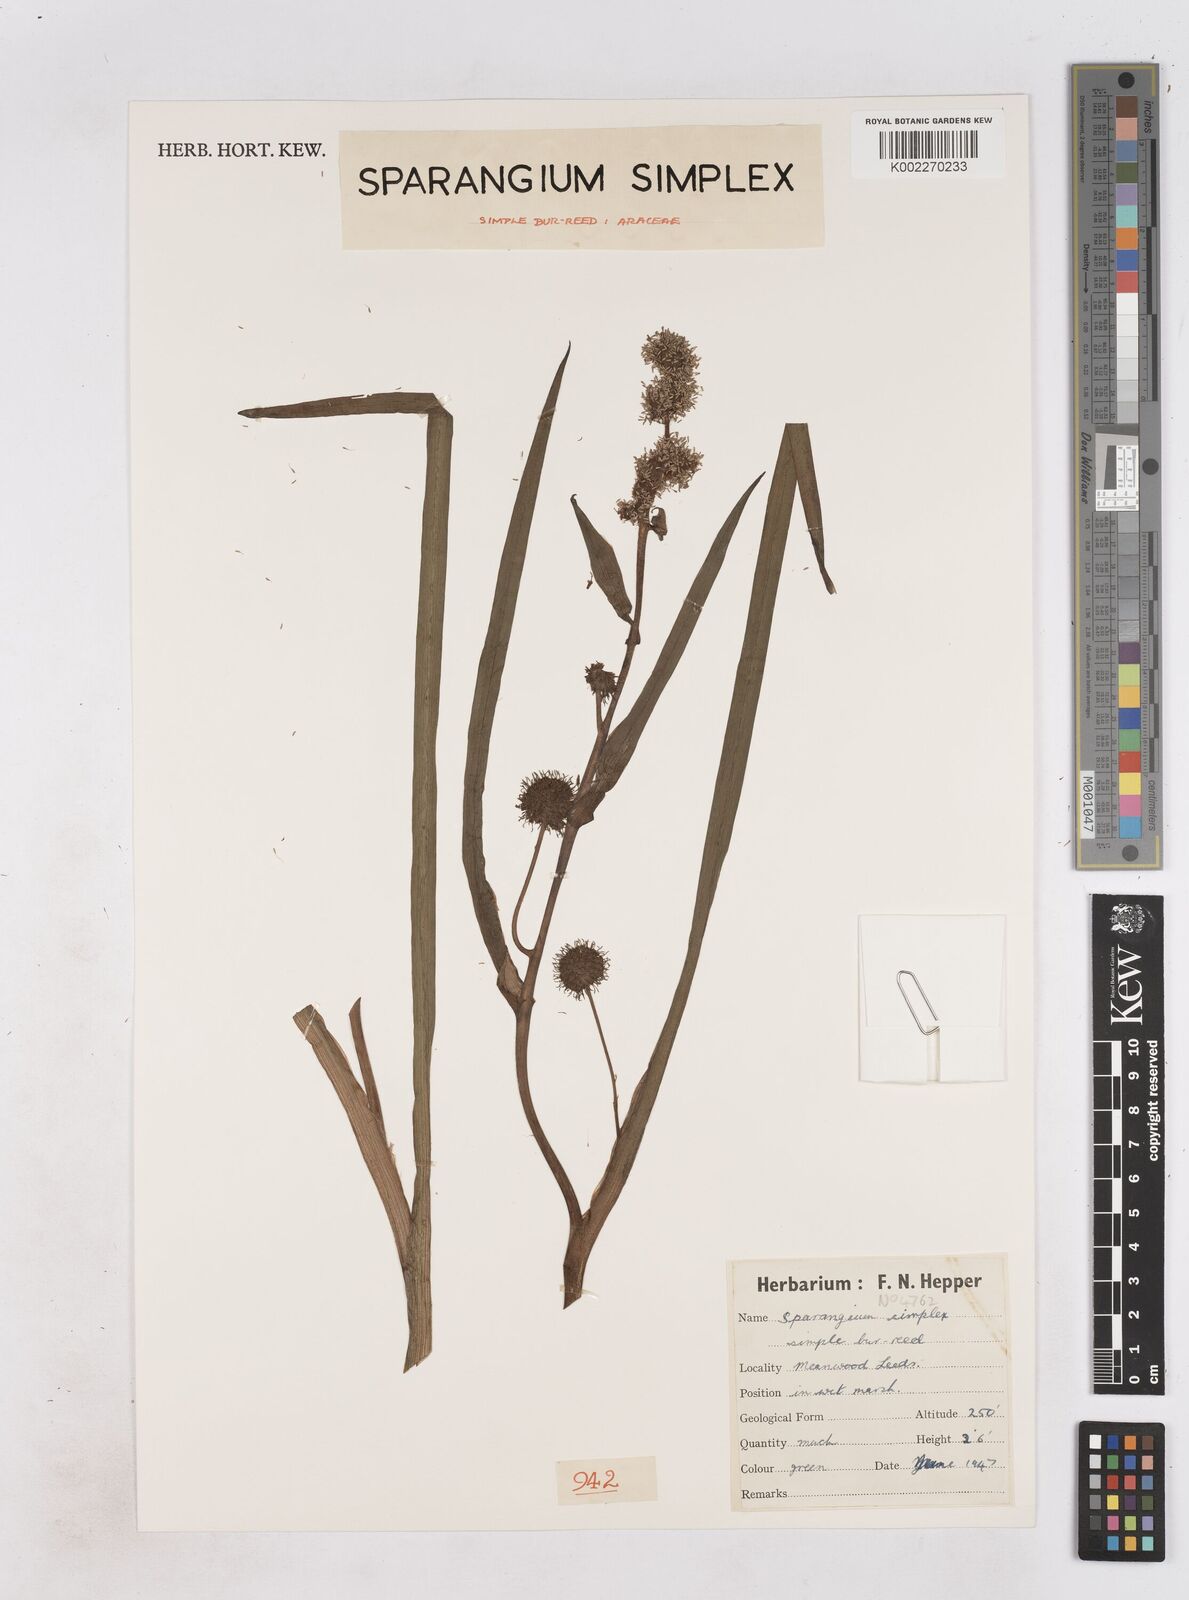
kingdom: Plantae
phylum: Tracheophyta
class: Liliopsida
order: Poales
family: Typhaceae
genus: Sparganium
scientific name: Sparganium emersum
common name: Unbranched bur-reed
